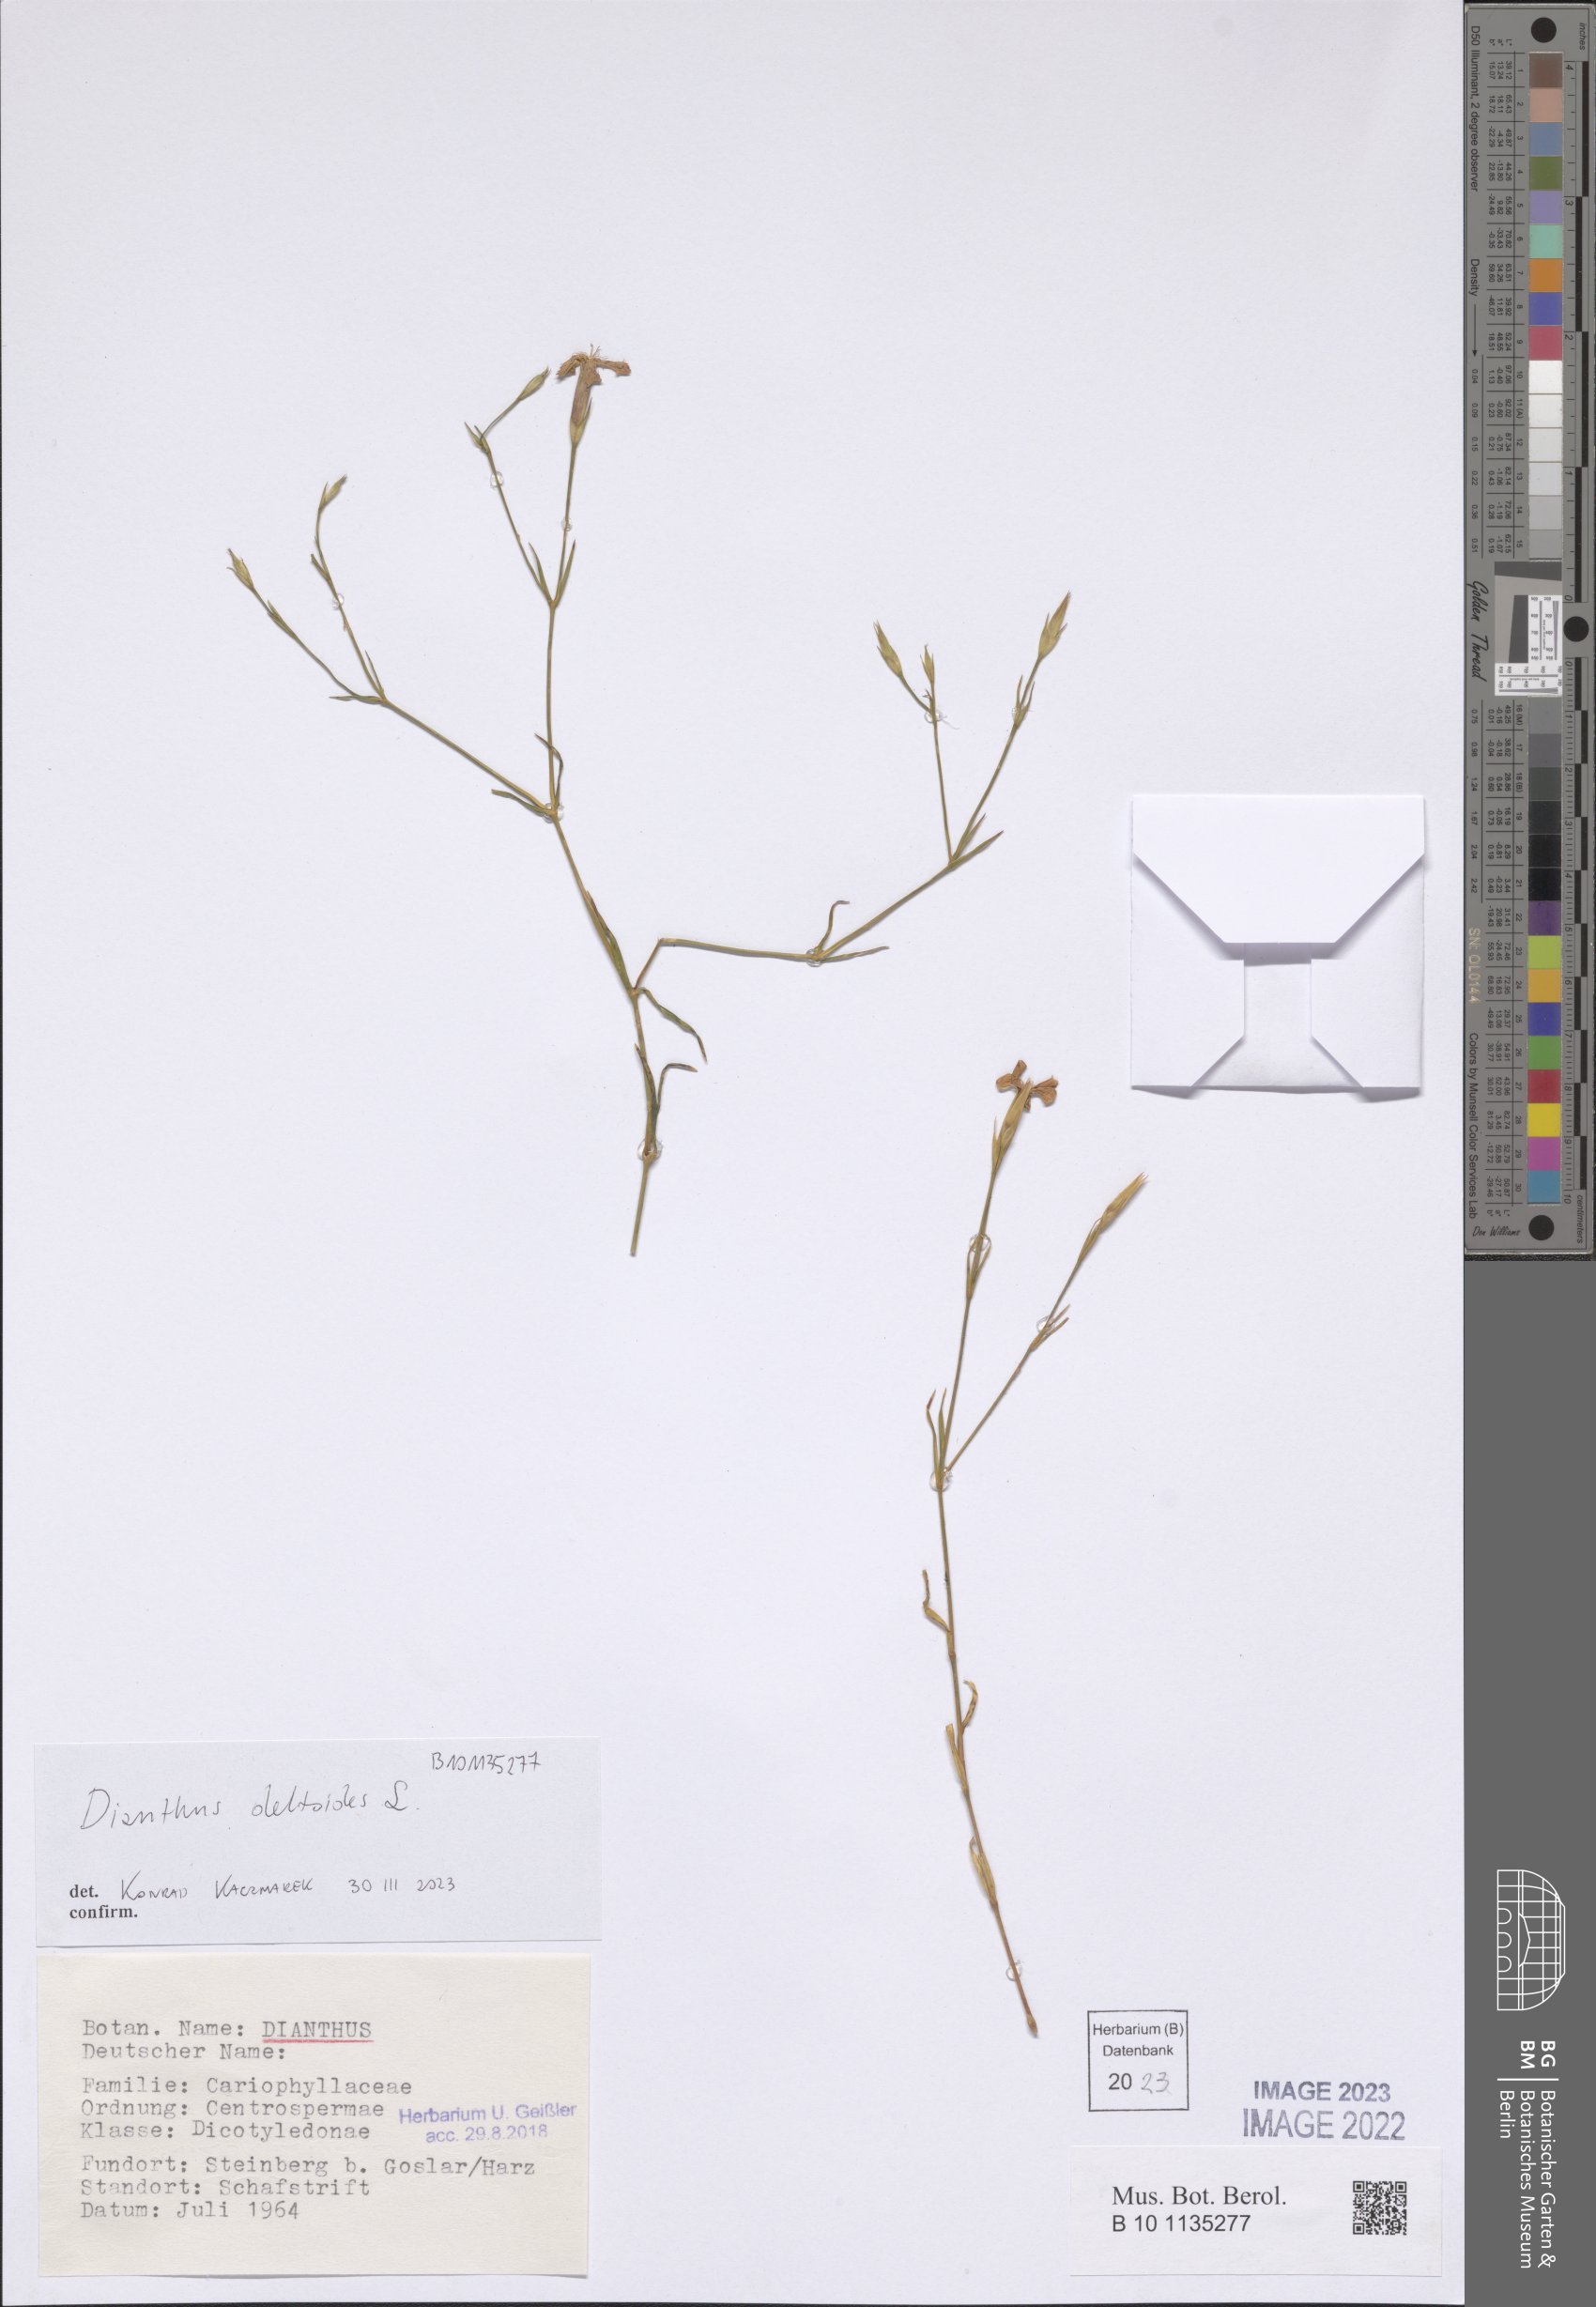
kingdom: Plantae
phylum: Tracheophyta
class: Magnoliopsida
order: Caryophyllales
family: Caryophyllaceae
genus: Dianthus
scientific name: Dianthus deltoides
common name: Maiden pink
